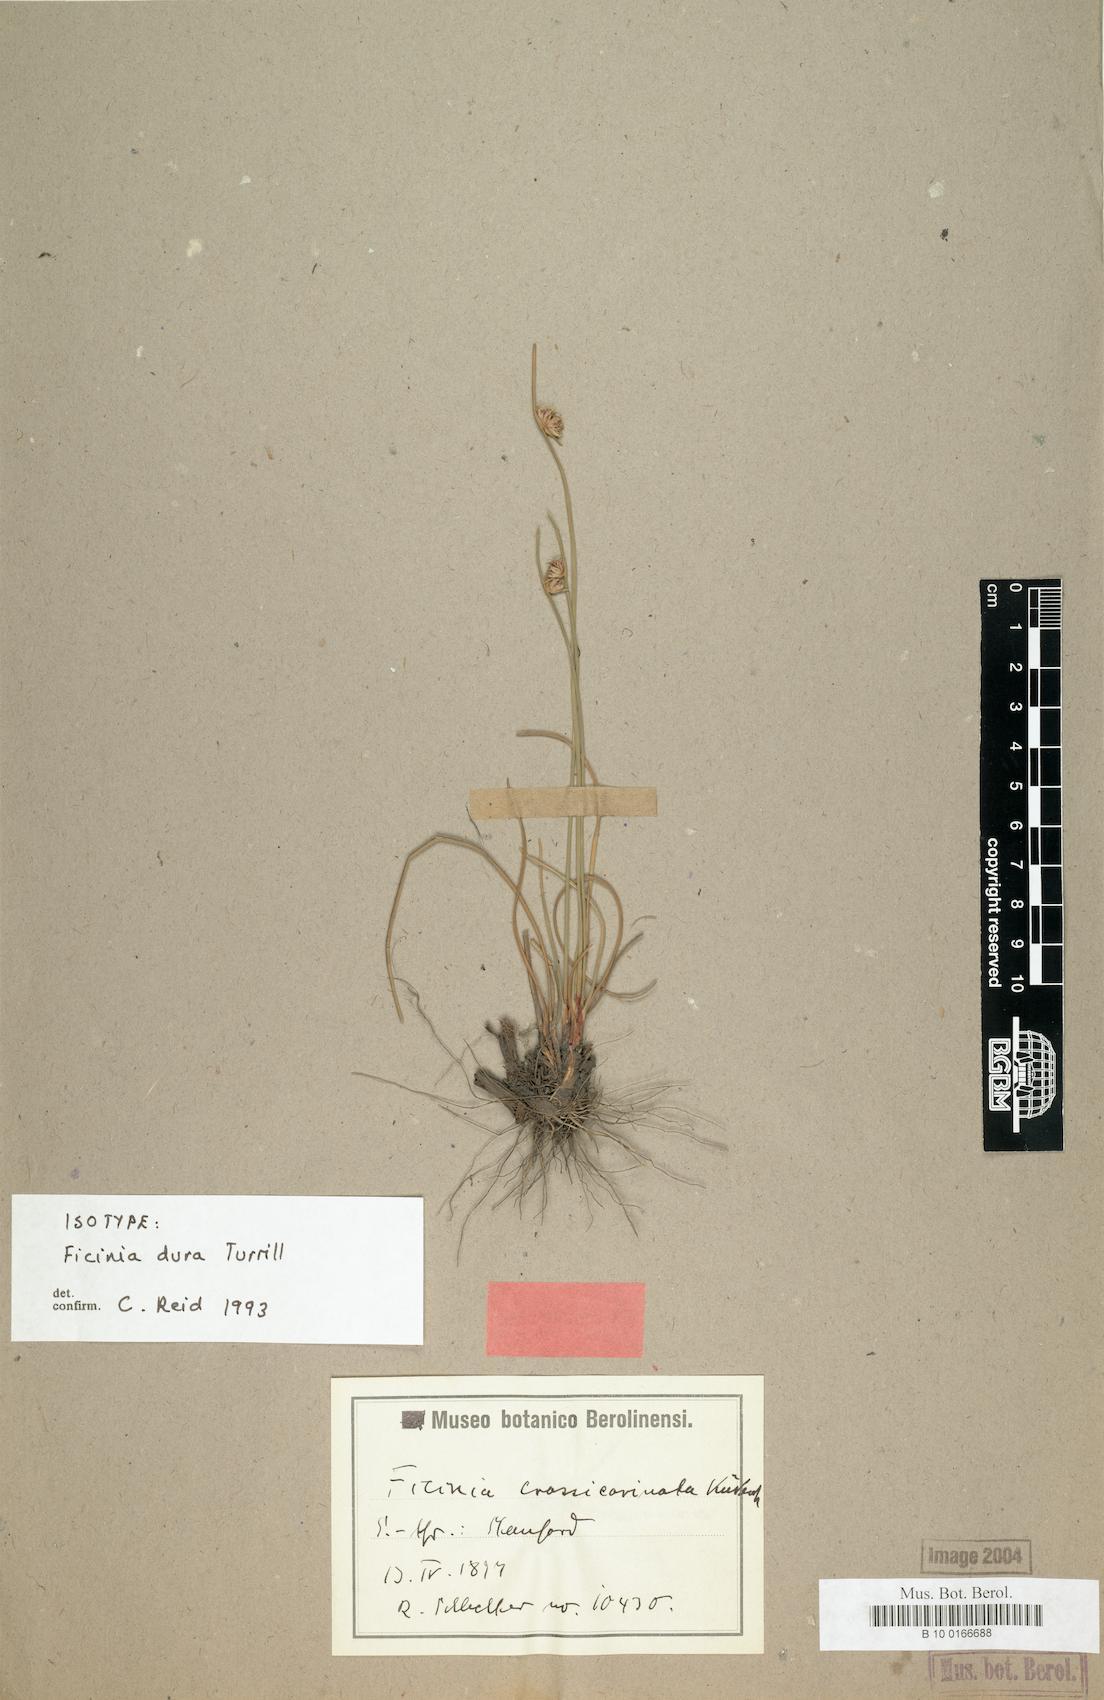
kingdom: Plantae
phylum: Tracheophyta
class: Liliopsida
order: Poales
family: Cyperaceae
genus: Ficinia
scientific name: Ficinia dura
